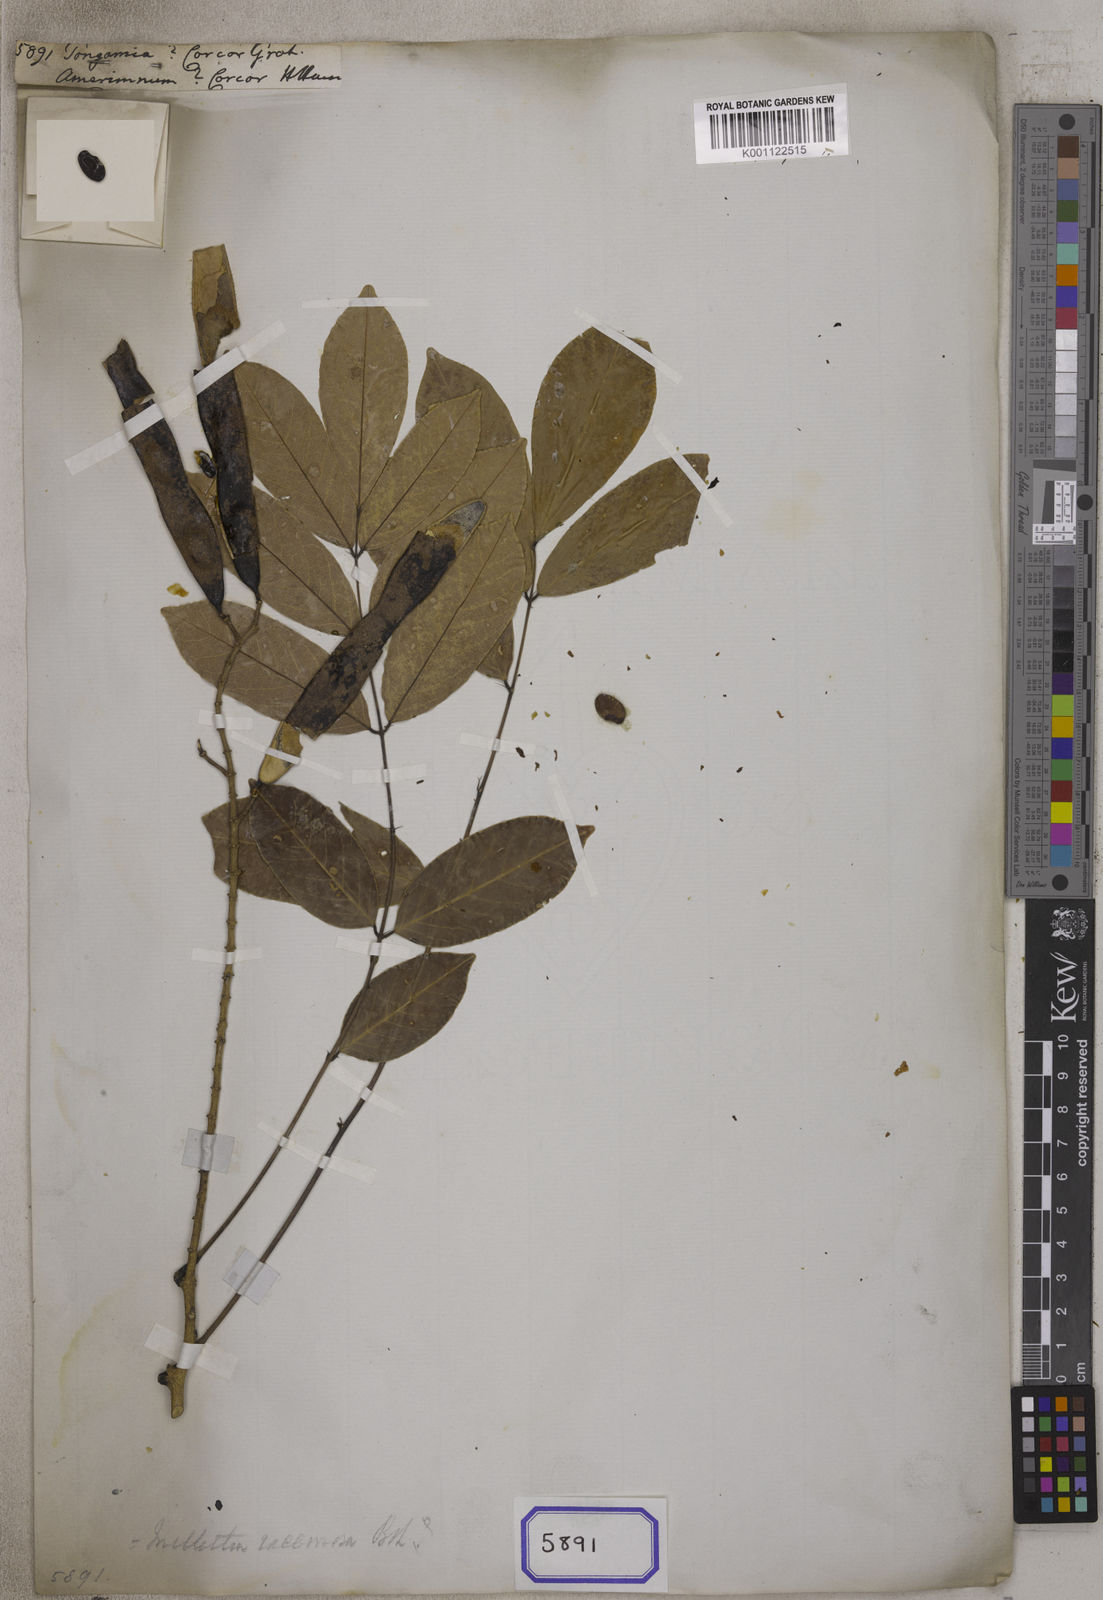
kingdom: Plantae
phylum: Tracheophyta
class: Magnoliopsida
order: Fabales
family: Fabaceae
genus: Endosamara
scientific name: Endosamara racemosa
